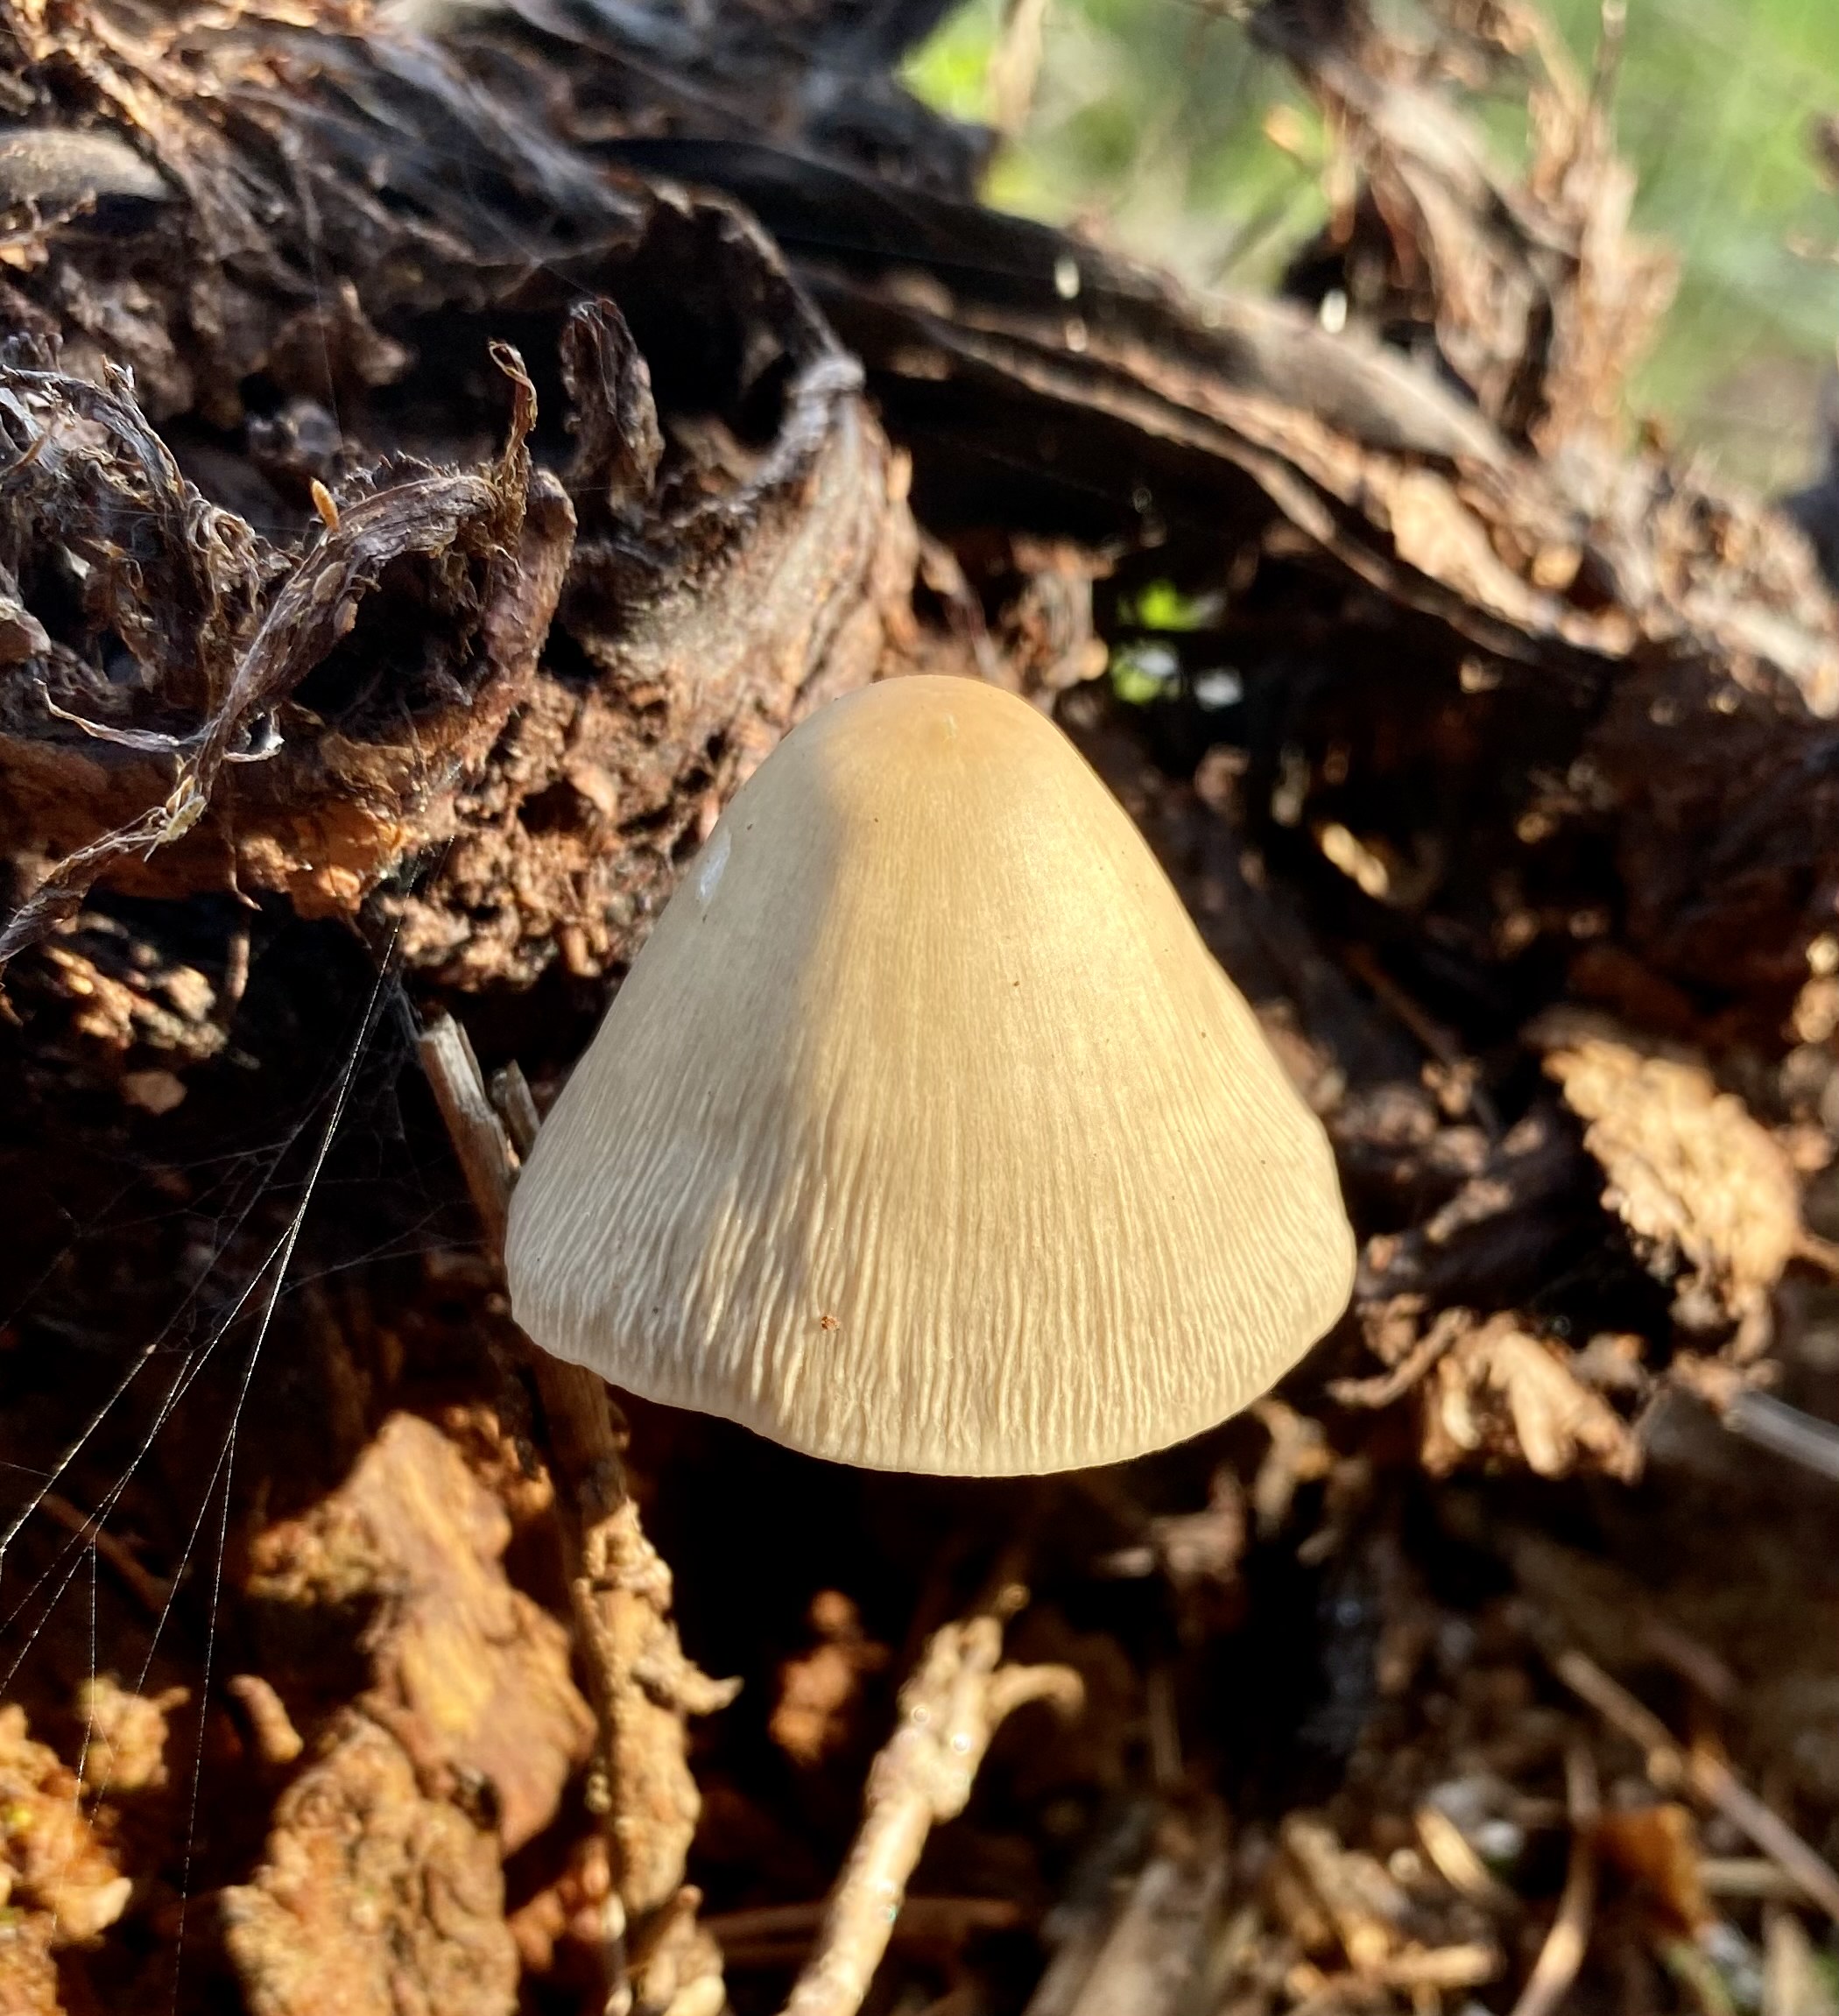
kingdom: Fungi
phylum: Basidiomycota
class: Agaricomycetes
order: Agaricales
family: Mycenaceae
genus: Mycena
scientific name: Mycena galericulata
